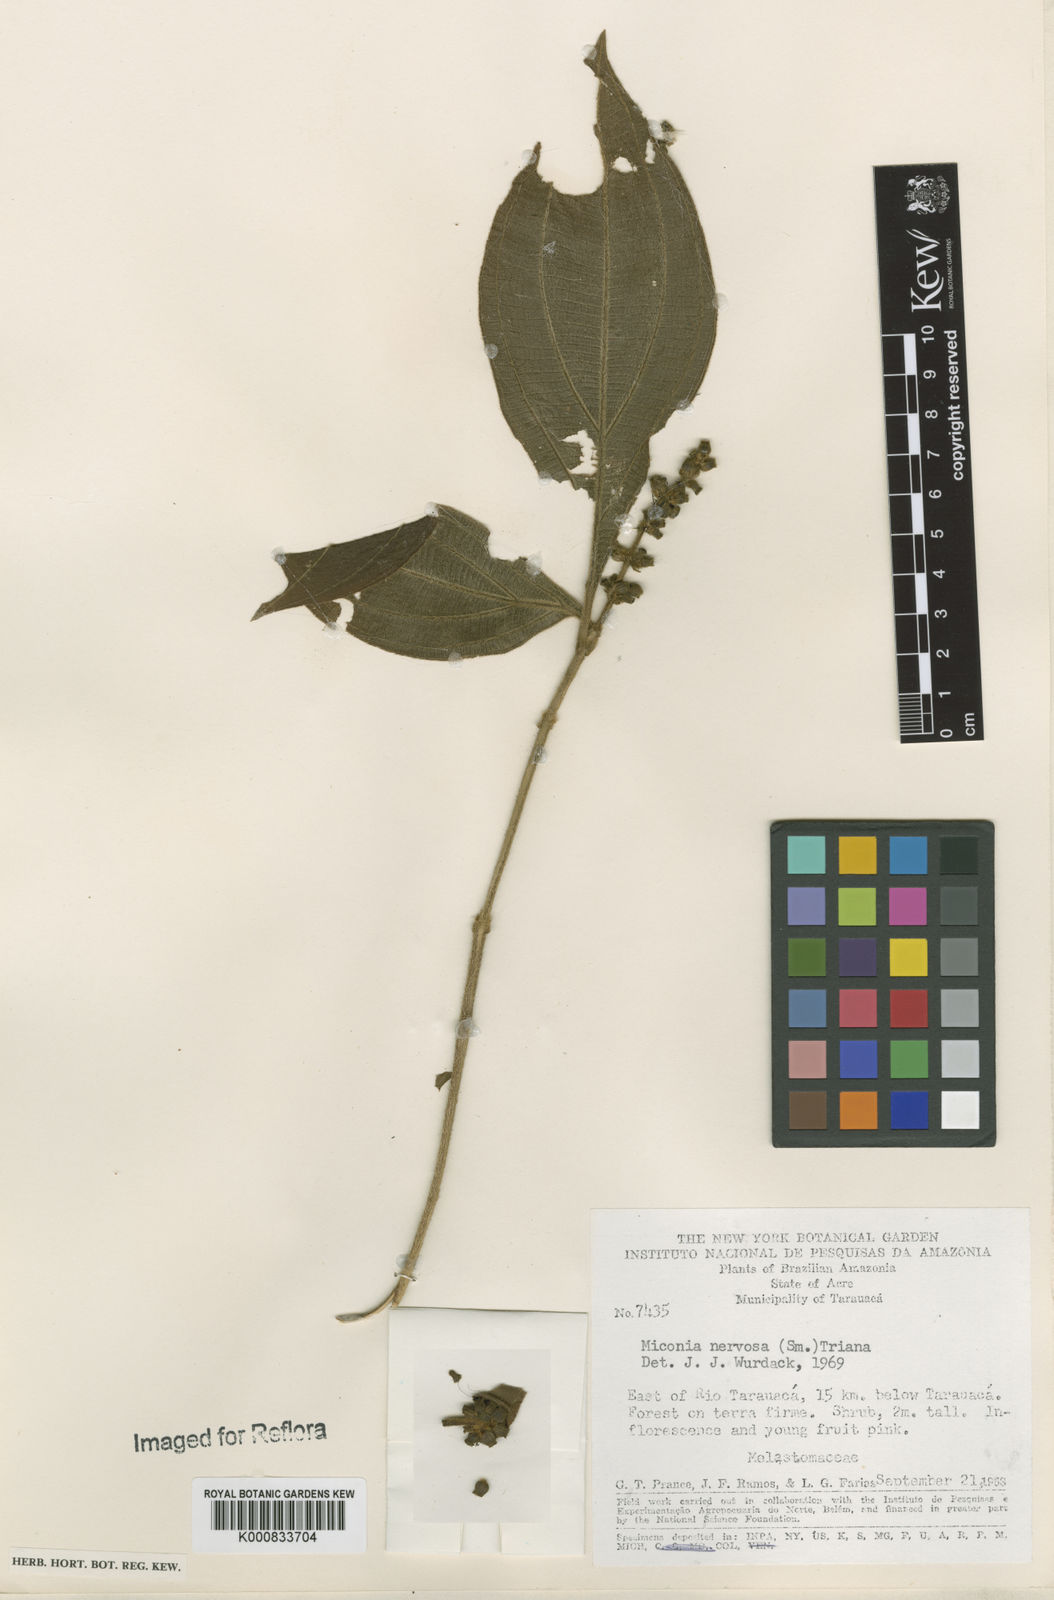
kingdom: Plantae
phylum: Tracheophyta
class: Magnoliopsida
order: Myrtales
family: Melastomataceae
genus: Miconia
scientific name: Miconia nervosa
